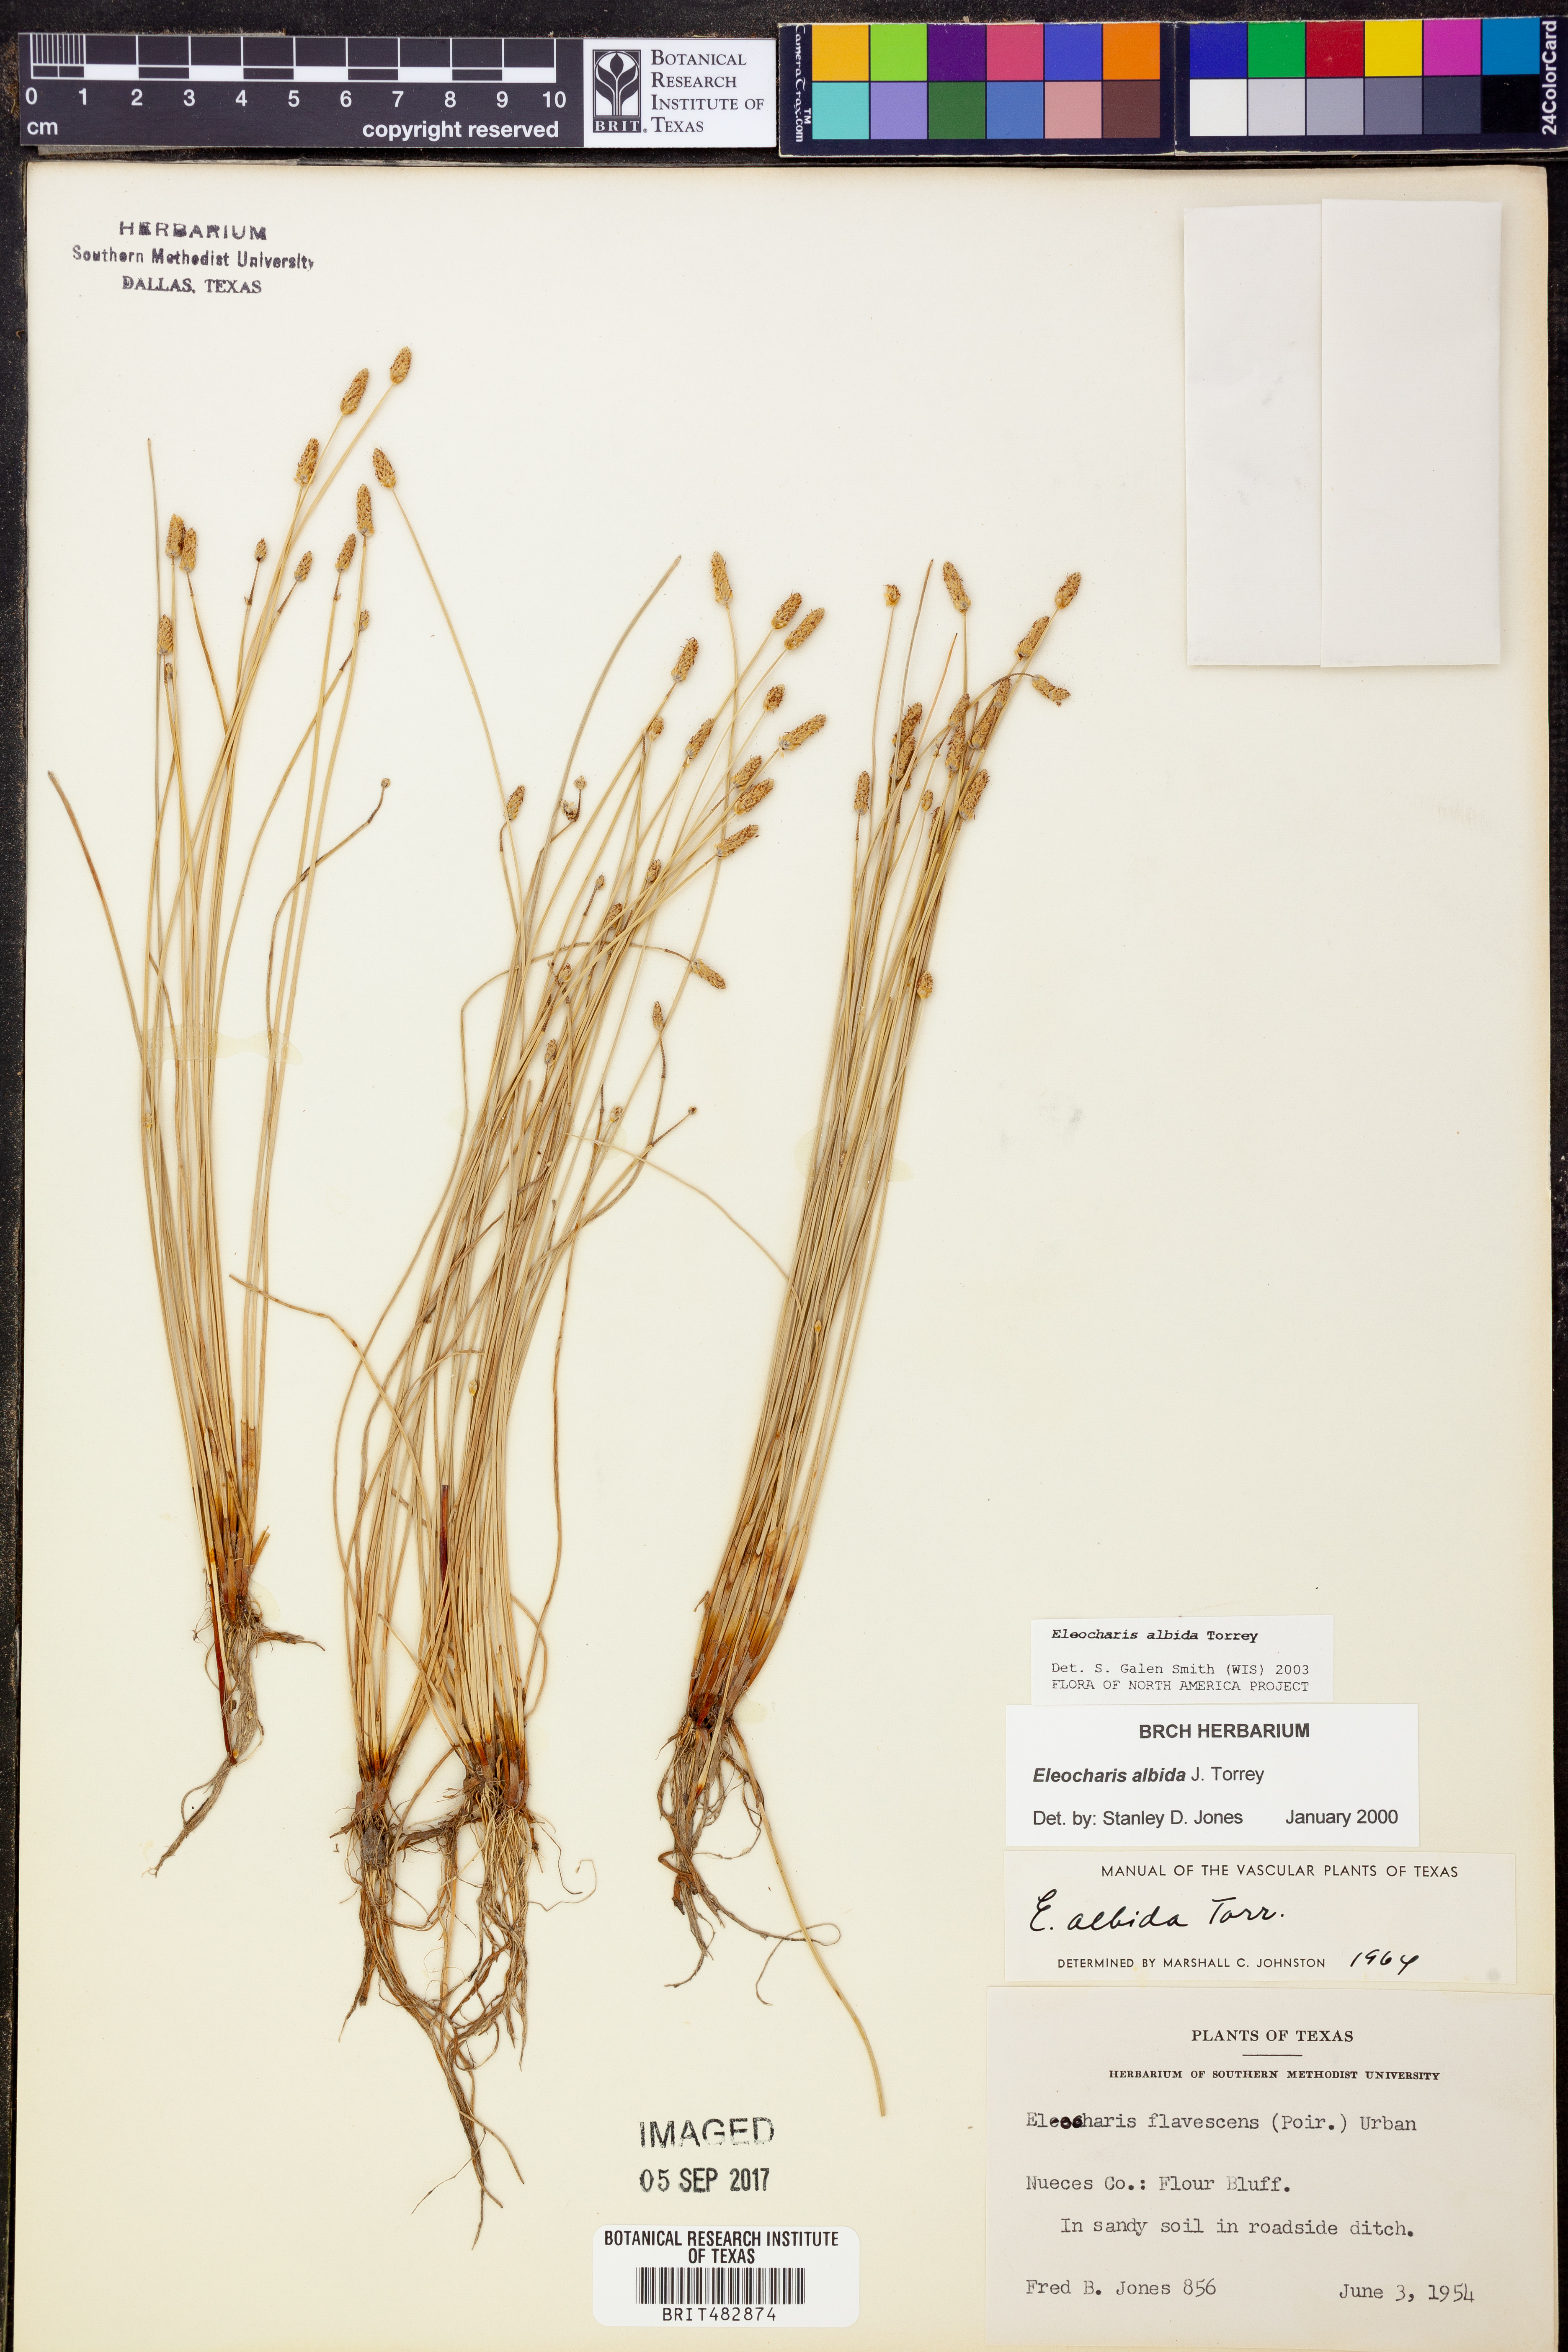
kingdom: Plantae
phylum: Tracheophyta
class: Liliopsida
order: Poales
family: Cyperaceae
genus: Eleocharis
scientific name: Eleocharis albida
